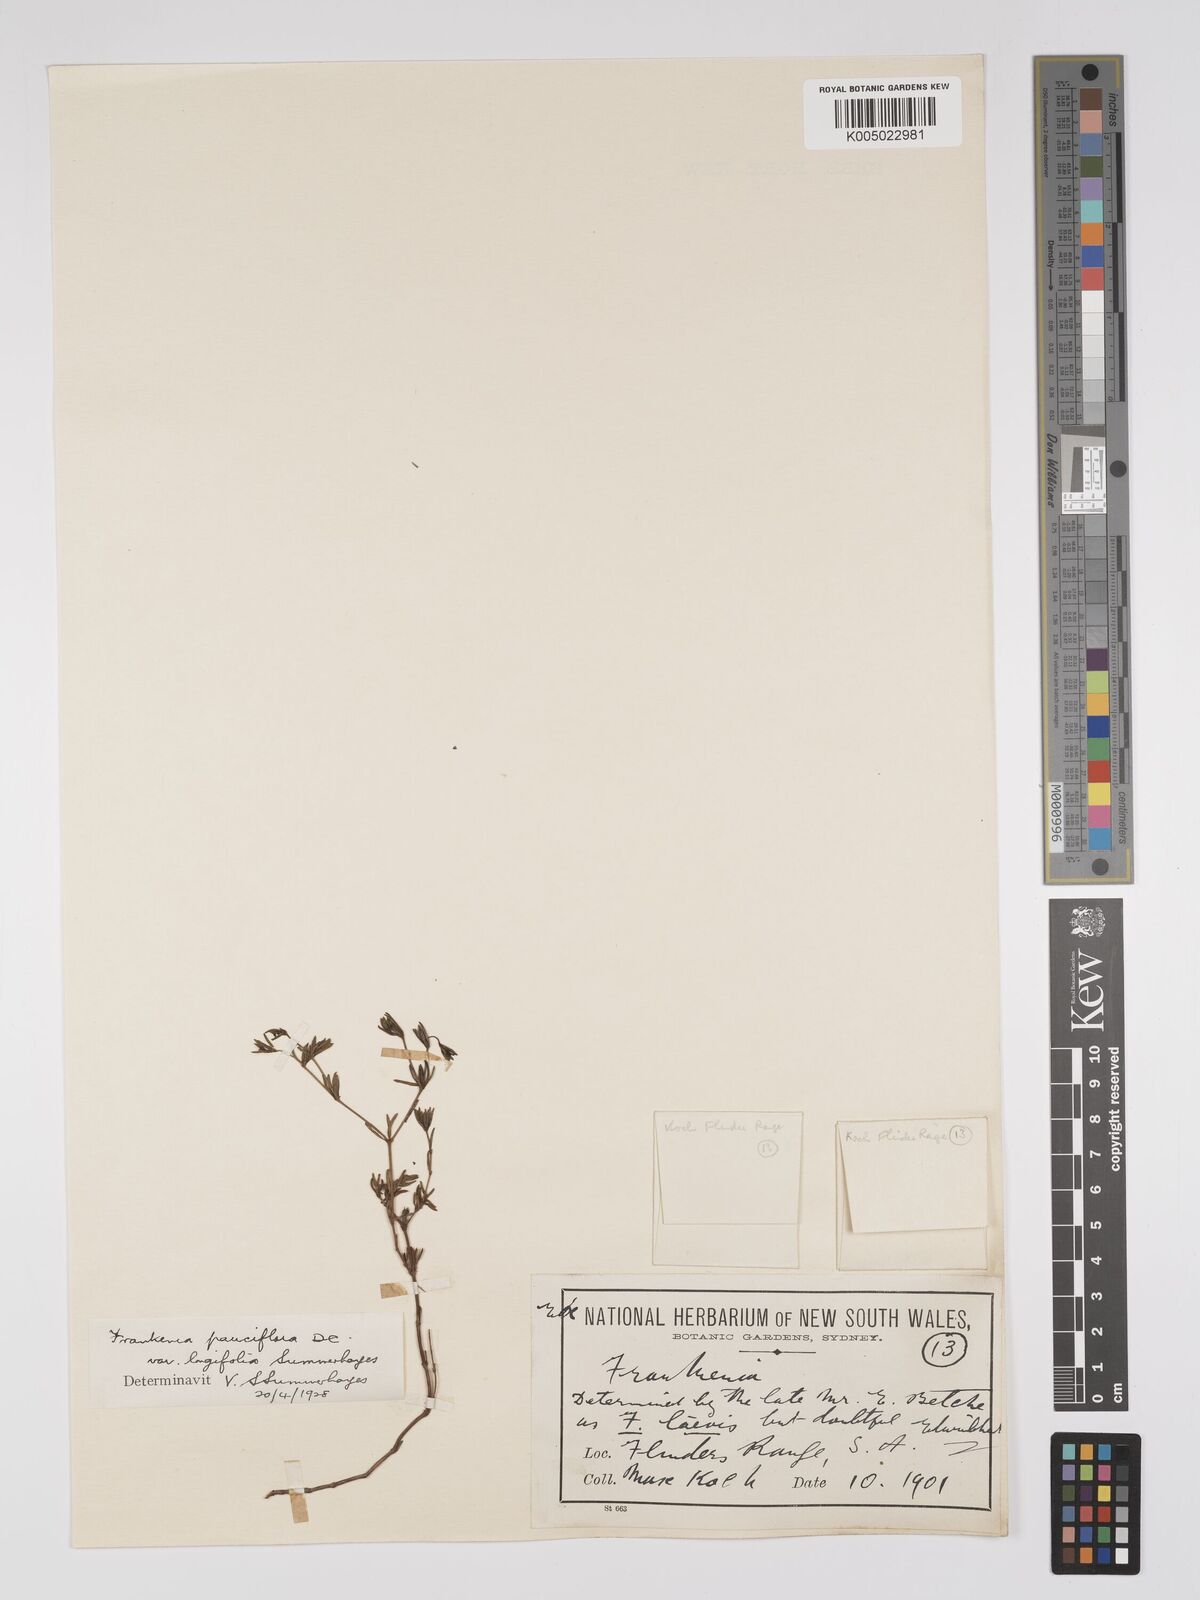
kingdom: Plantae
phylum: Tracheophyta
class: Magnoliopsida
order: Caryophyllales
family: Frankeniaceae
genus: Frankenia
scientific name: Frankenia pauciflora
